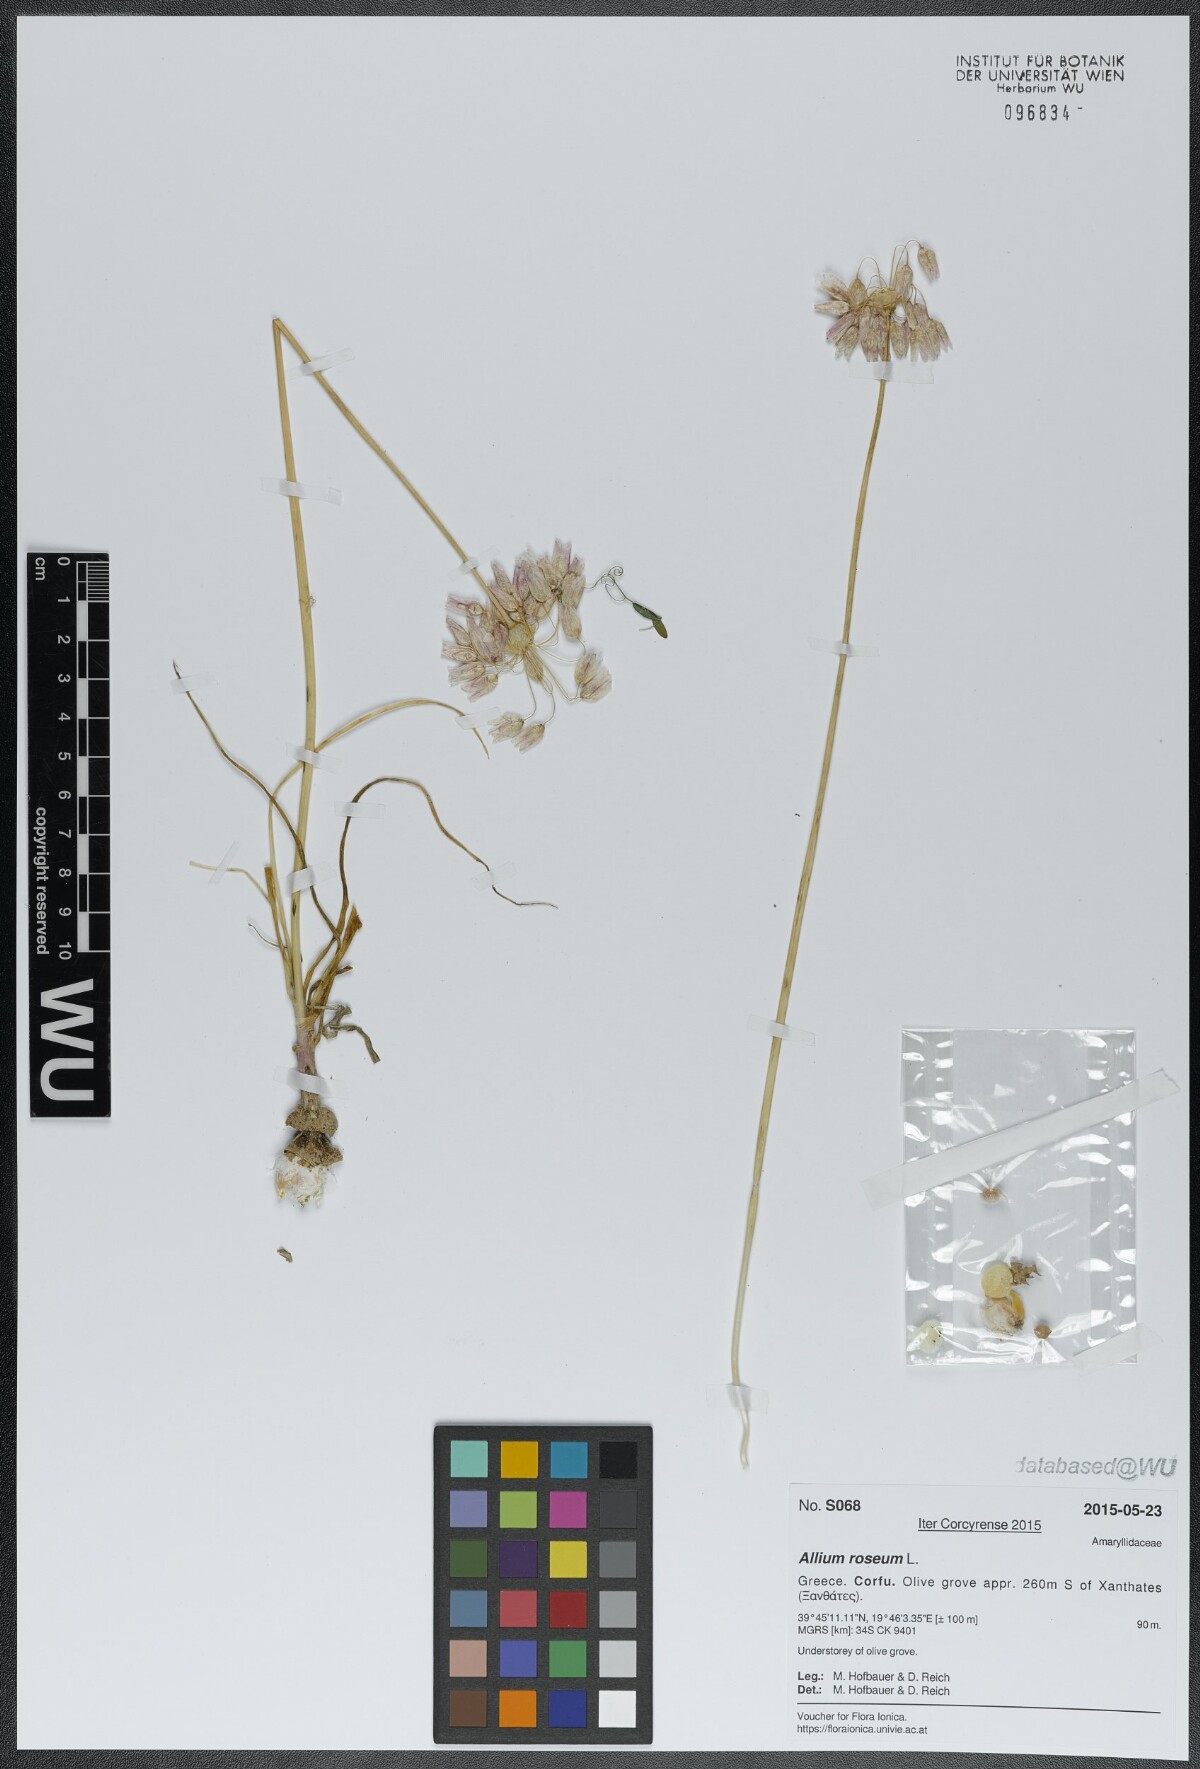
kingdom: Plantae
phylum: Tracheophyta
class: Liliopsida
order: Asparagales
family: Amaryllidaceae
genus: Allium
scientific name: Allium roseum
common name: Rosy garlic
